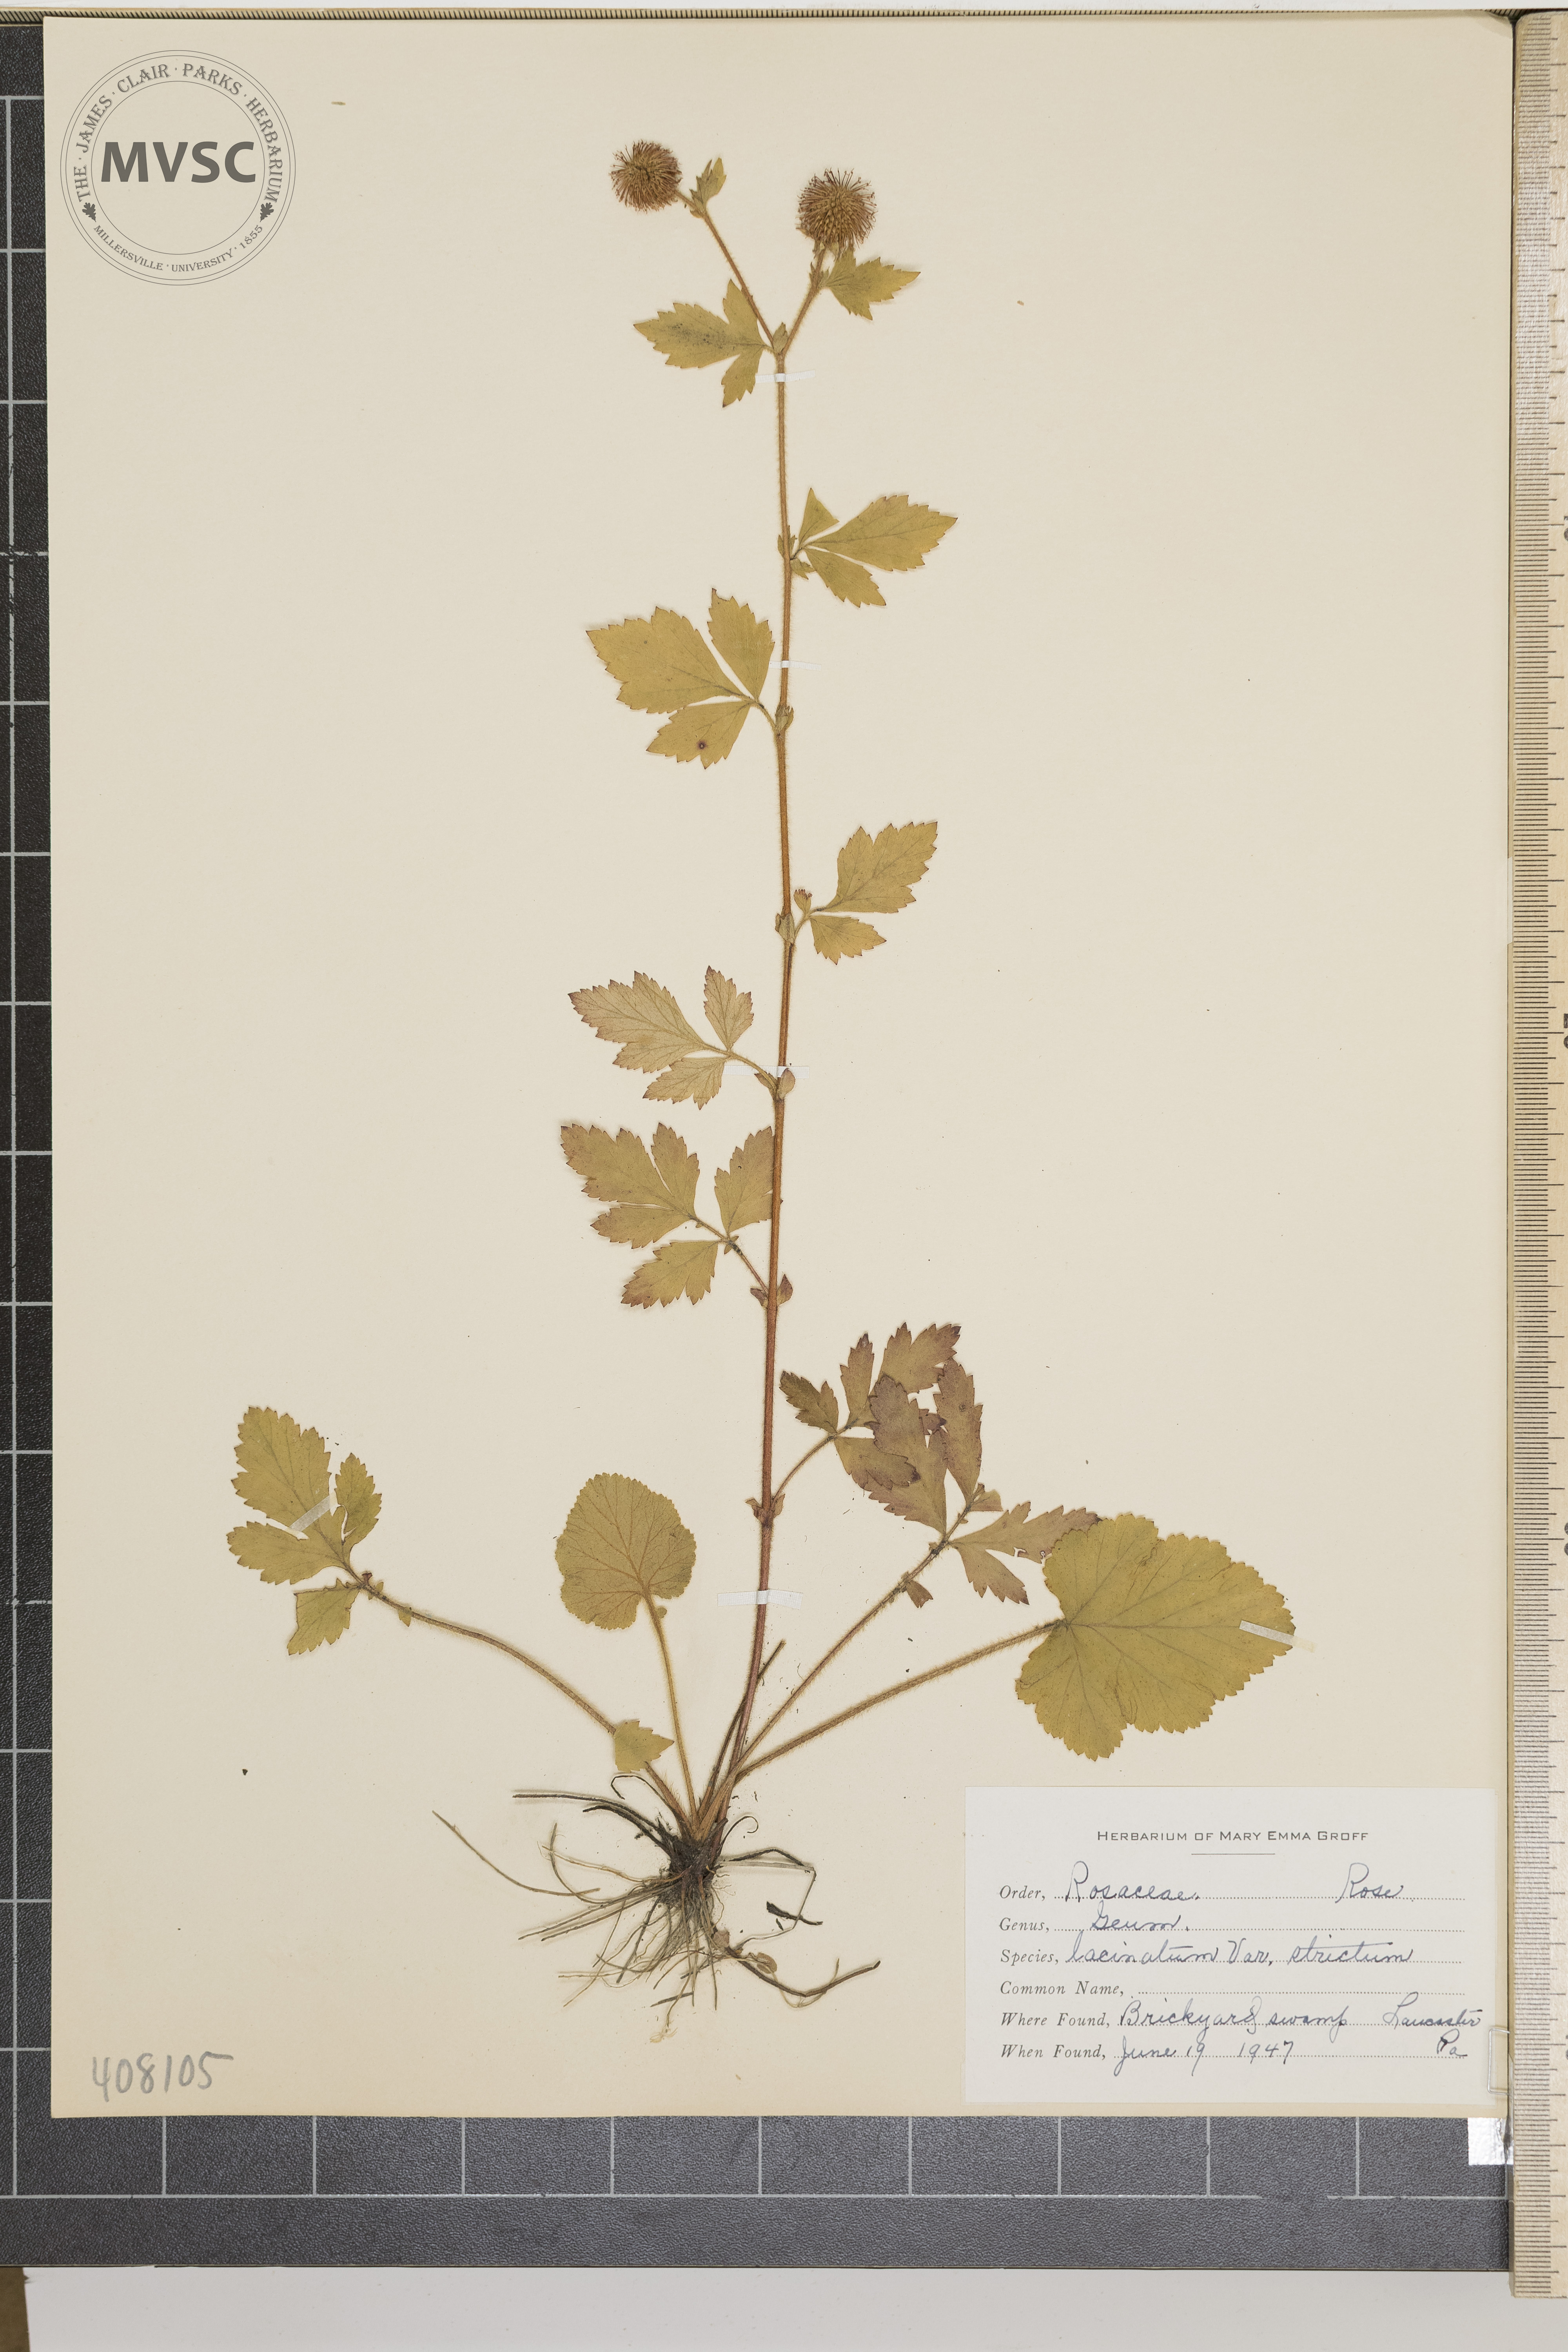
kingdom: Plantae
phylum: Tracheophyta
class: Magnoliopsida
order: Rosales
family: Rosaceae
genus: Geum
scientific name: Geum laciniatum
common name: Rough avens
